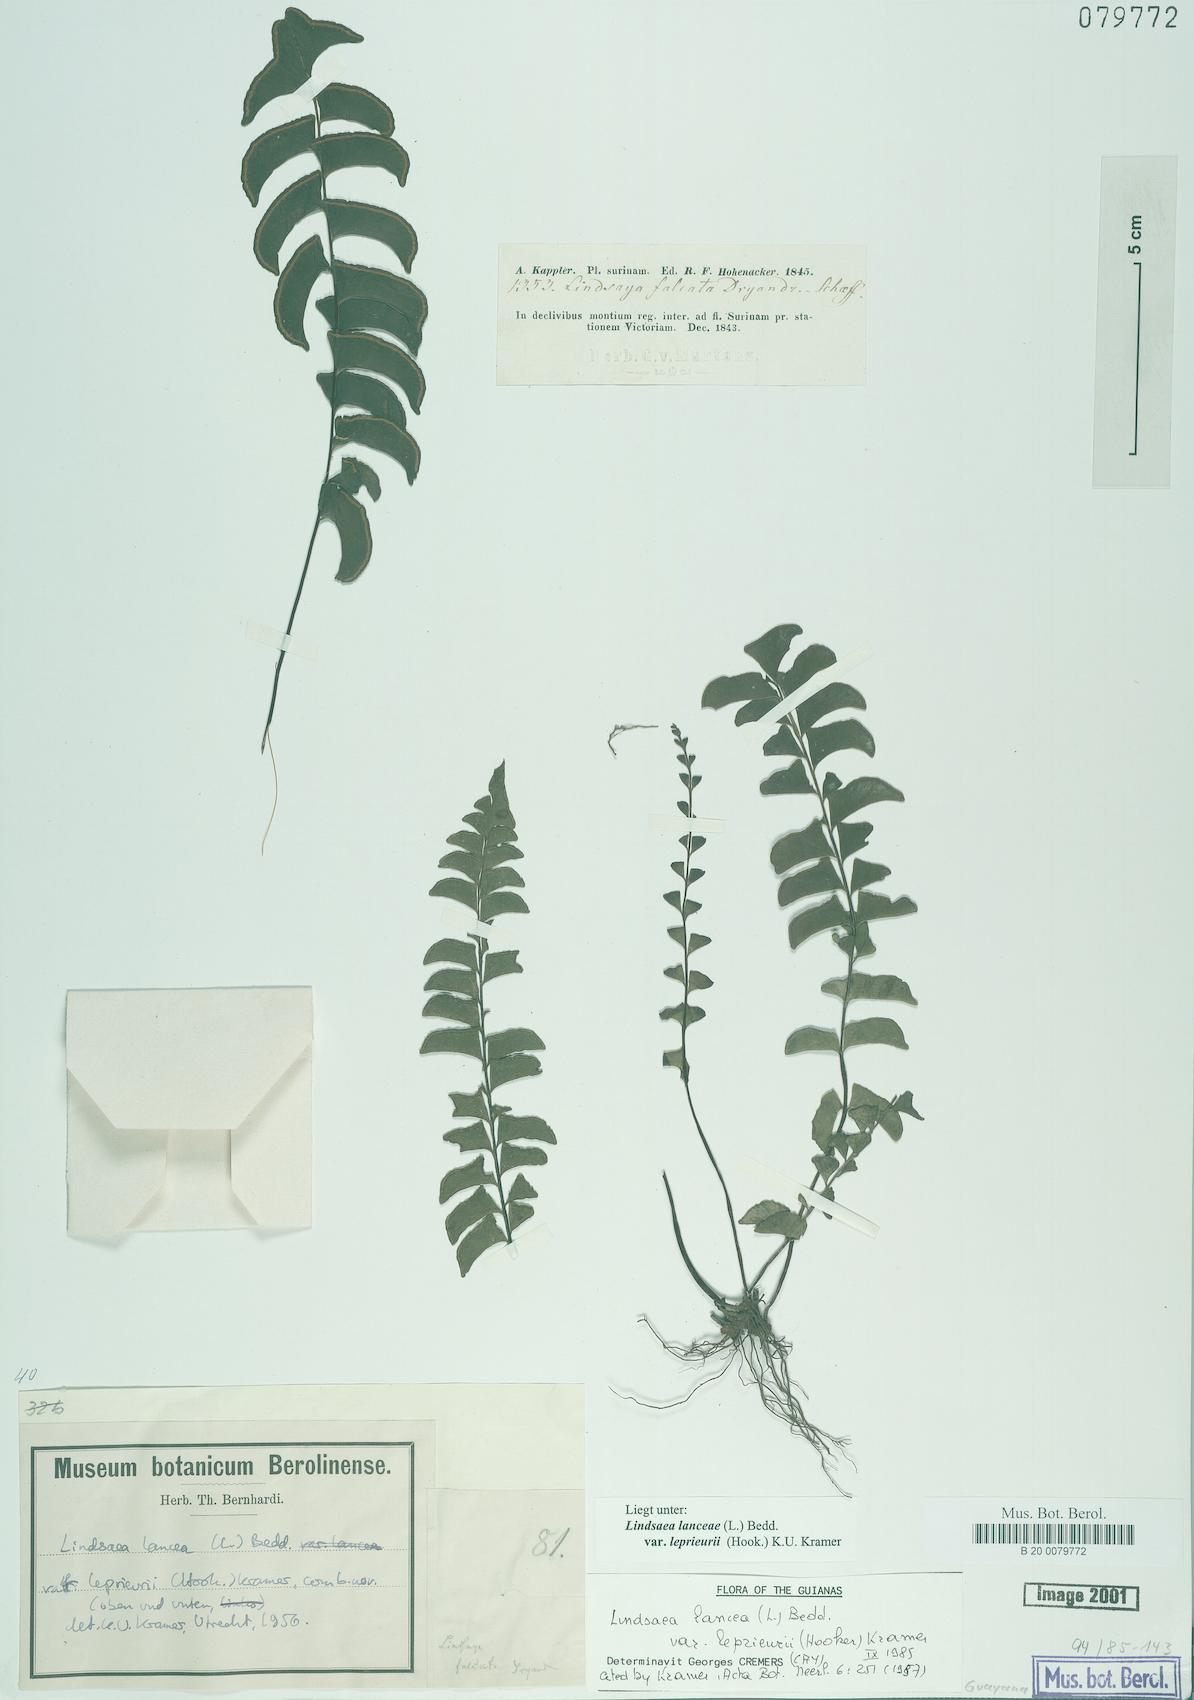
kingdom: Plantae
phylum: Tracheophyta
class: Polypodiopsida
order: Polypodiales
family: Lindsaeaceae
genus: Lindsaea
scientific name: Lindsaea lancea
